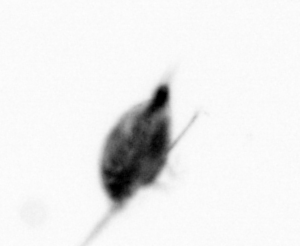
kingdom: Animalia
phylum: Arthropoda
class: Maxillopoda
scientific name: Maxillopoda
